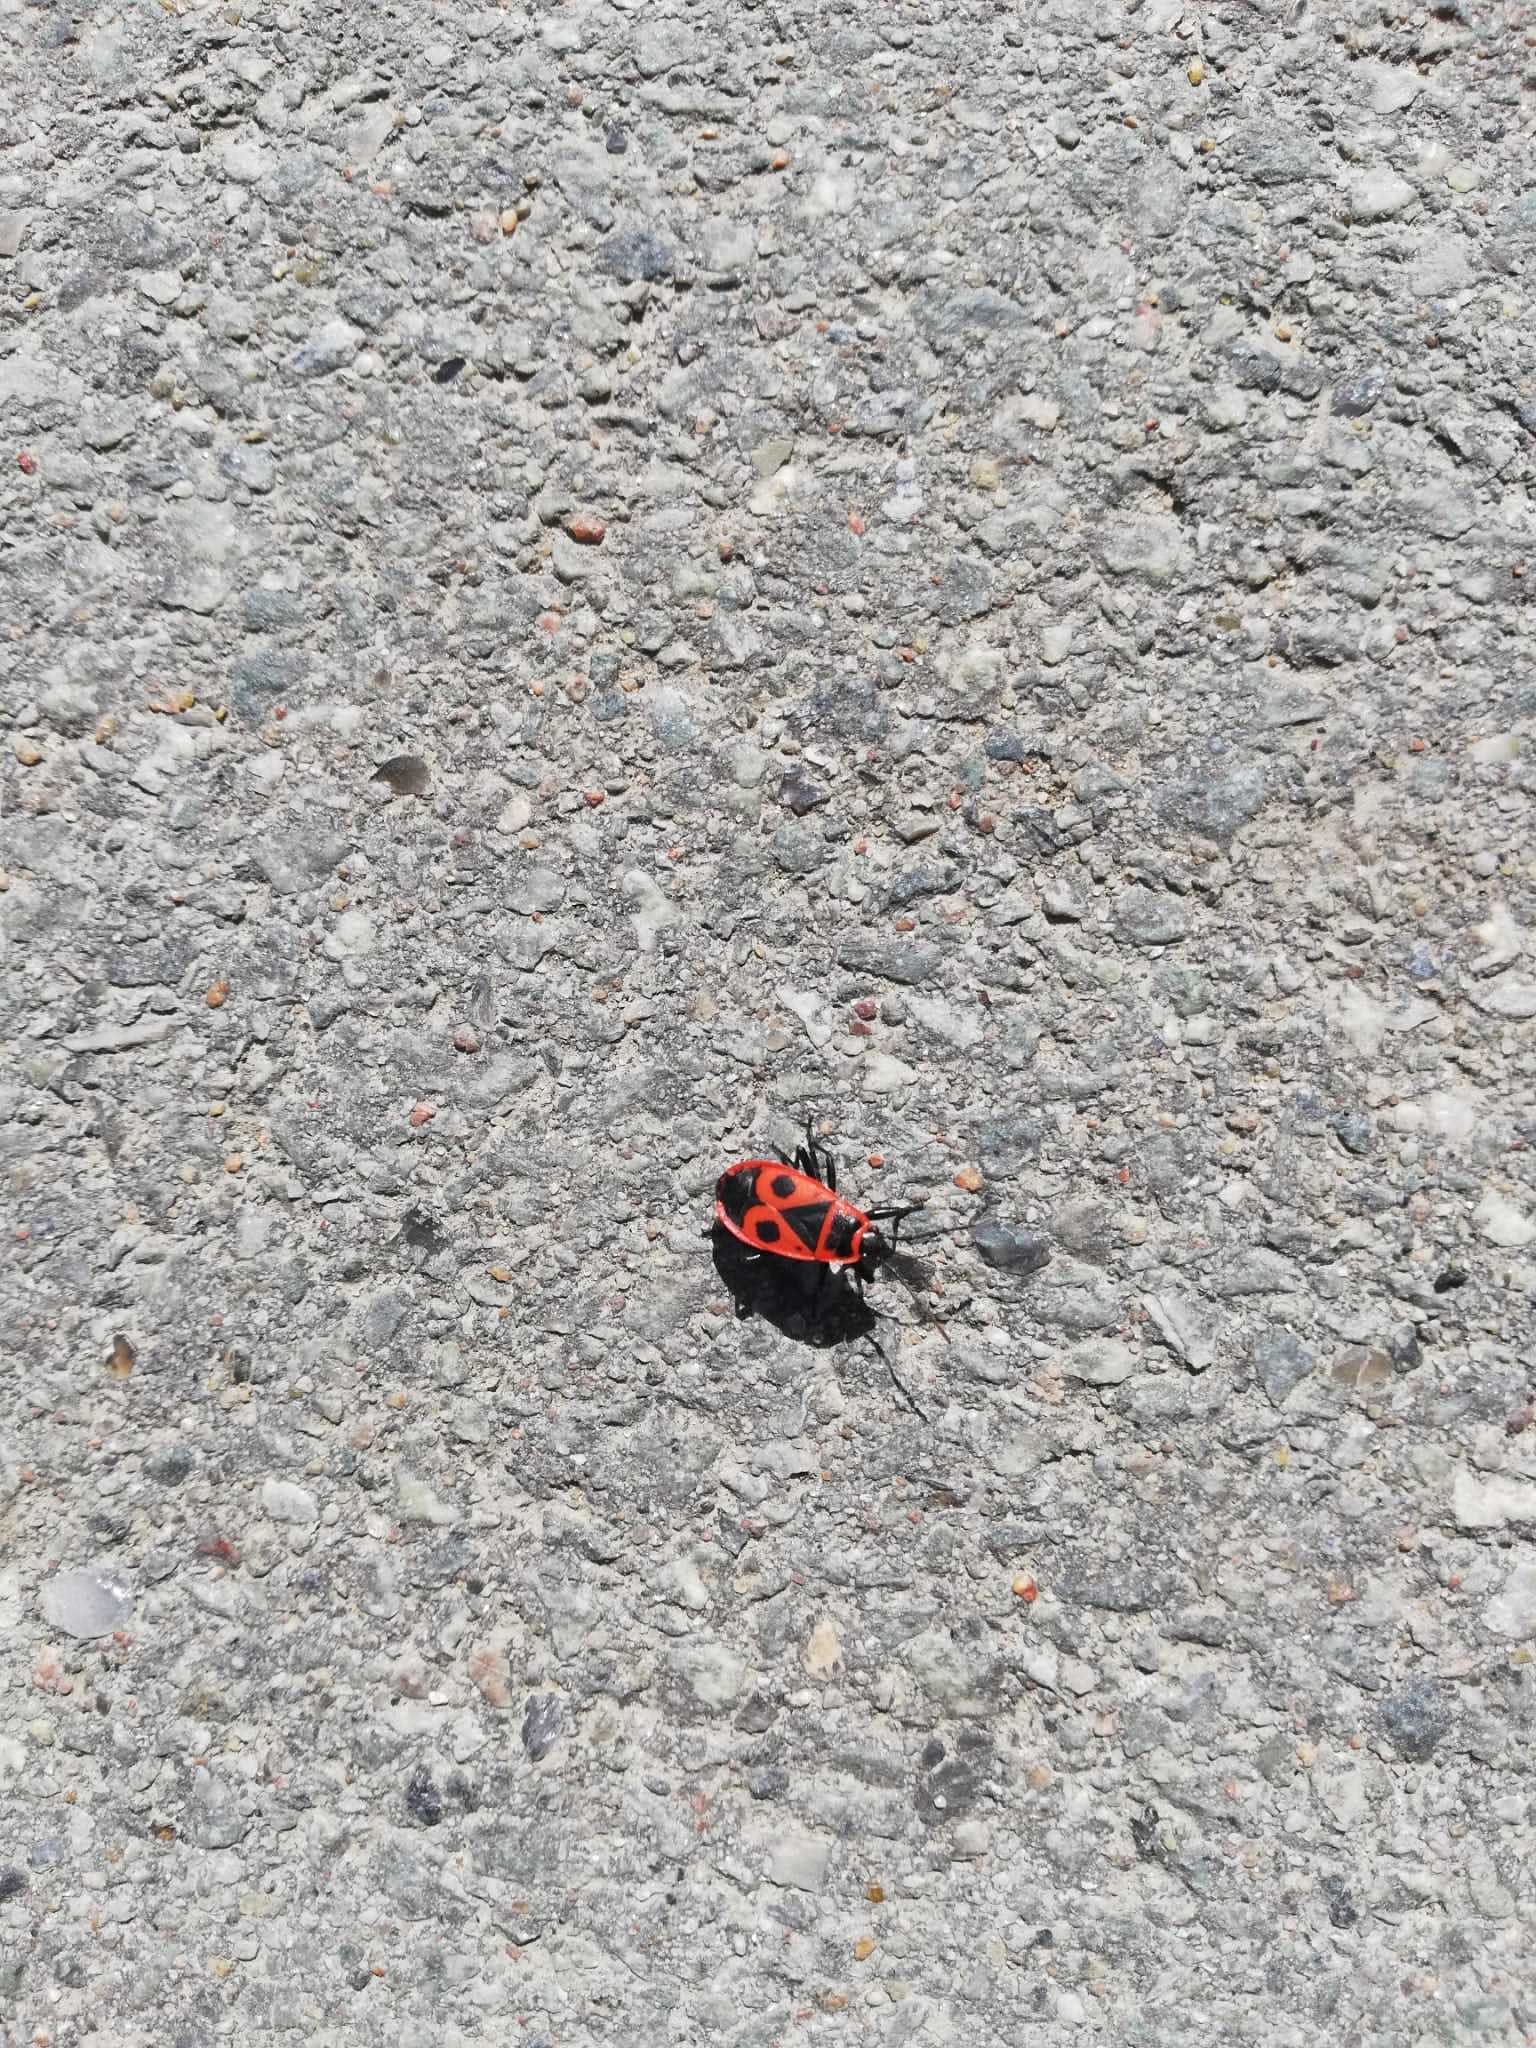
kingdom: Animalia
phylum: Arthropoda
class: Insecta
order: Hemiptera
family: Pyrrhocoridae
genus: Pyrrhocoris
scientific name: Pyrrhocoris apterus
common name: Ildtæge
